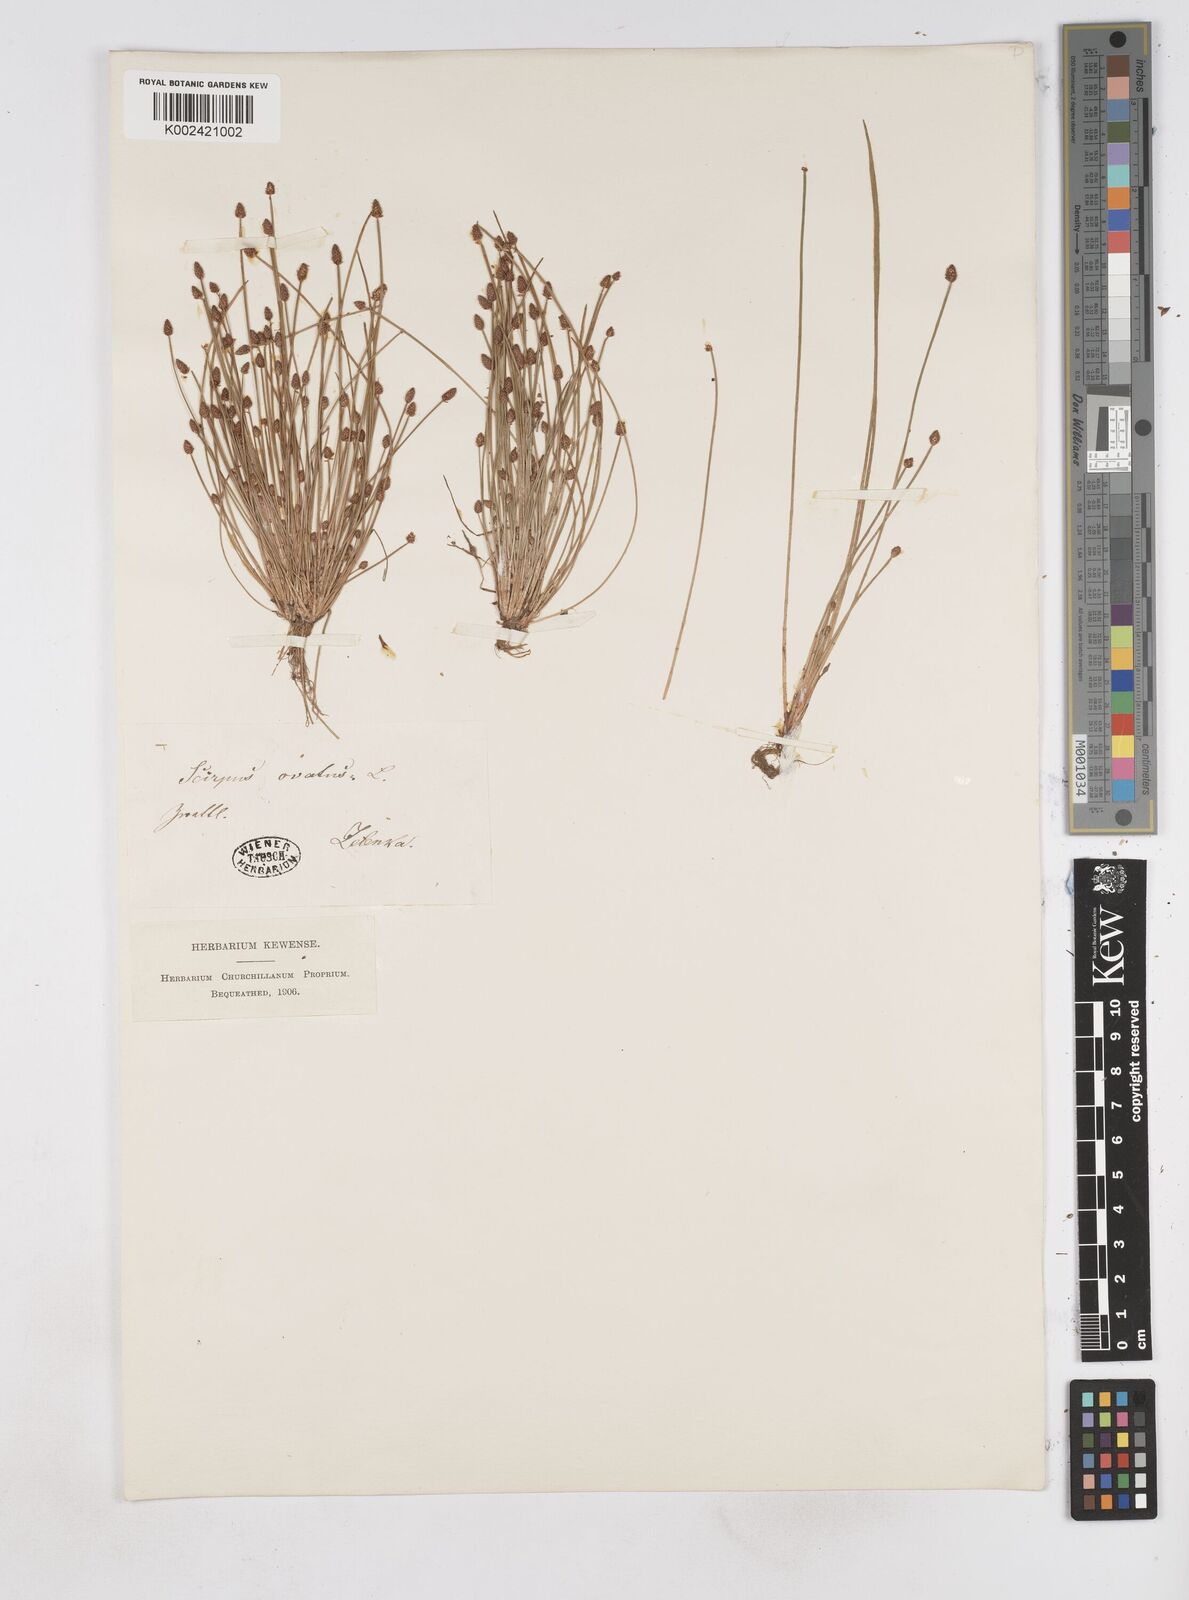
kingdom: Plantae
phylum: Tracheophyta
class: Liliopsida
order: Poales
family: Cyperaceae
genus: Eleocharis
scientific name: Eleocharis
